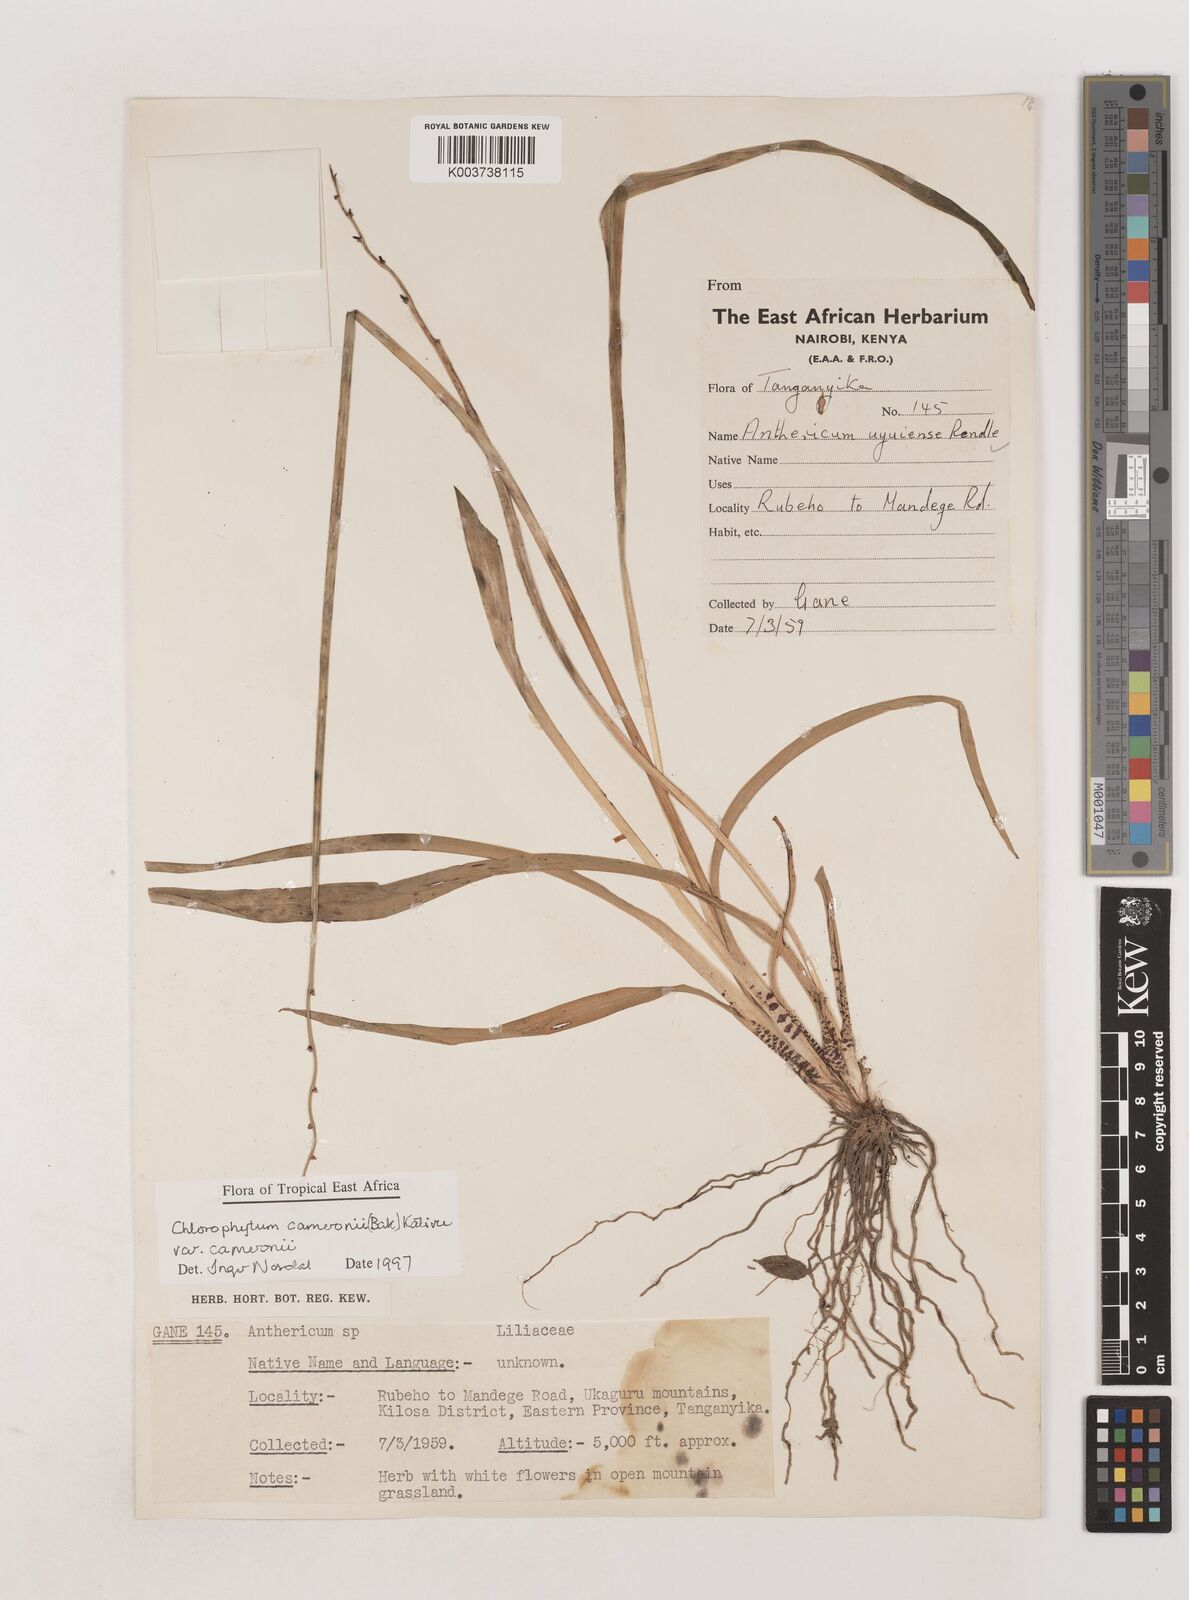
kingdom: Plantae
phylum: Tracheophyta
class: Liliopsida
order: Asparagales
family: Asparagaceae
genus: Chlorophytum
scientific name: Chlorophytum cameronii
